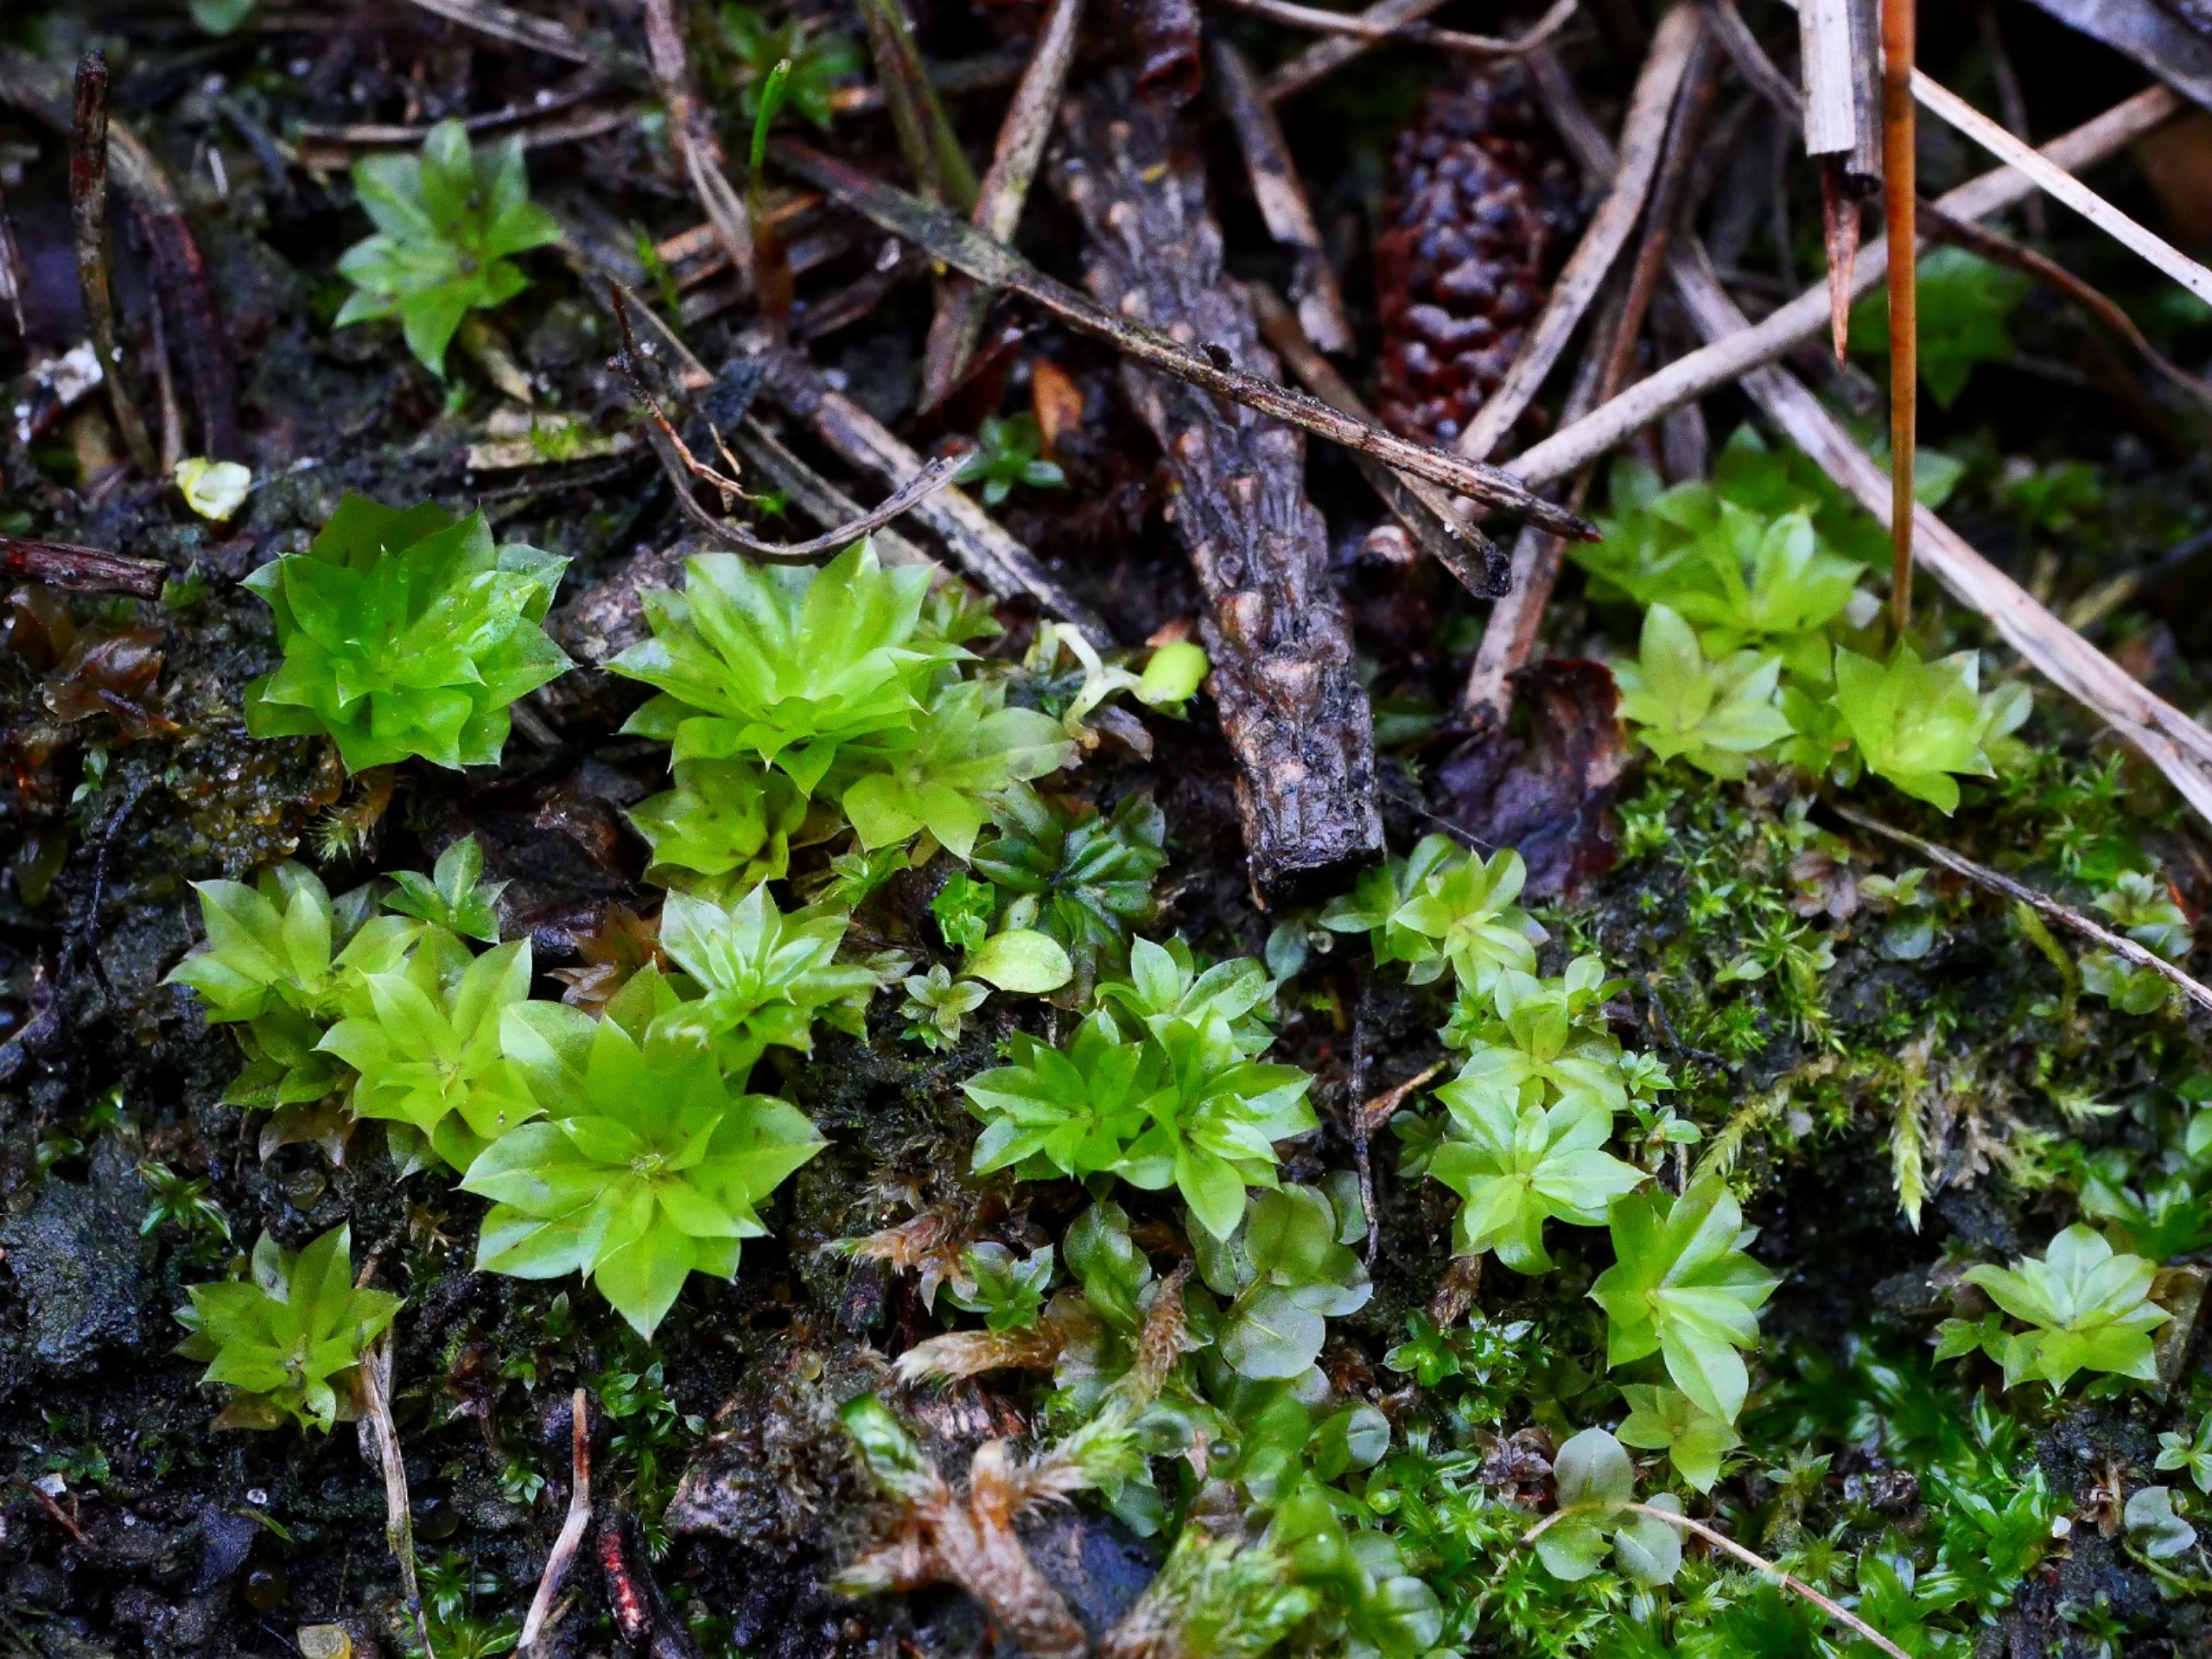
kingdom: Plantae
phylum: Bryophyta
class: Bryopsida
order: Bryales
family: Bryaceae
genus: Rhodobryum
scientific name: Rhodobryum roseum
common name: Stor rosetmos
